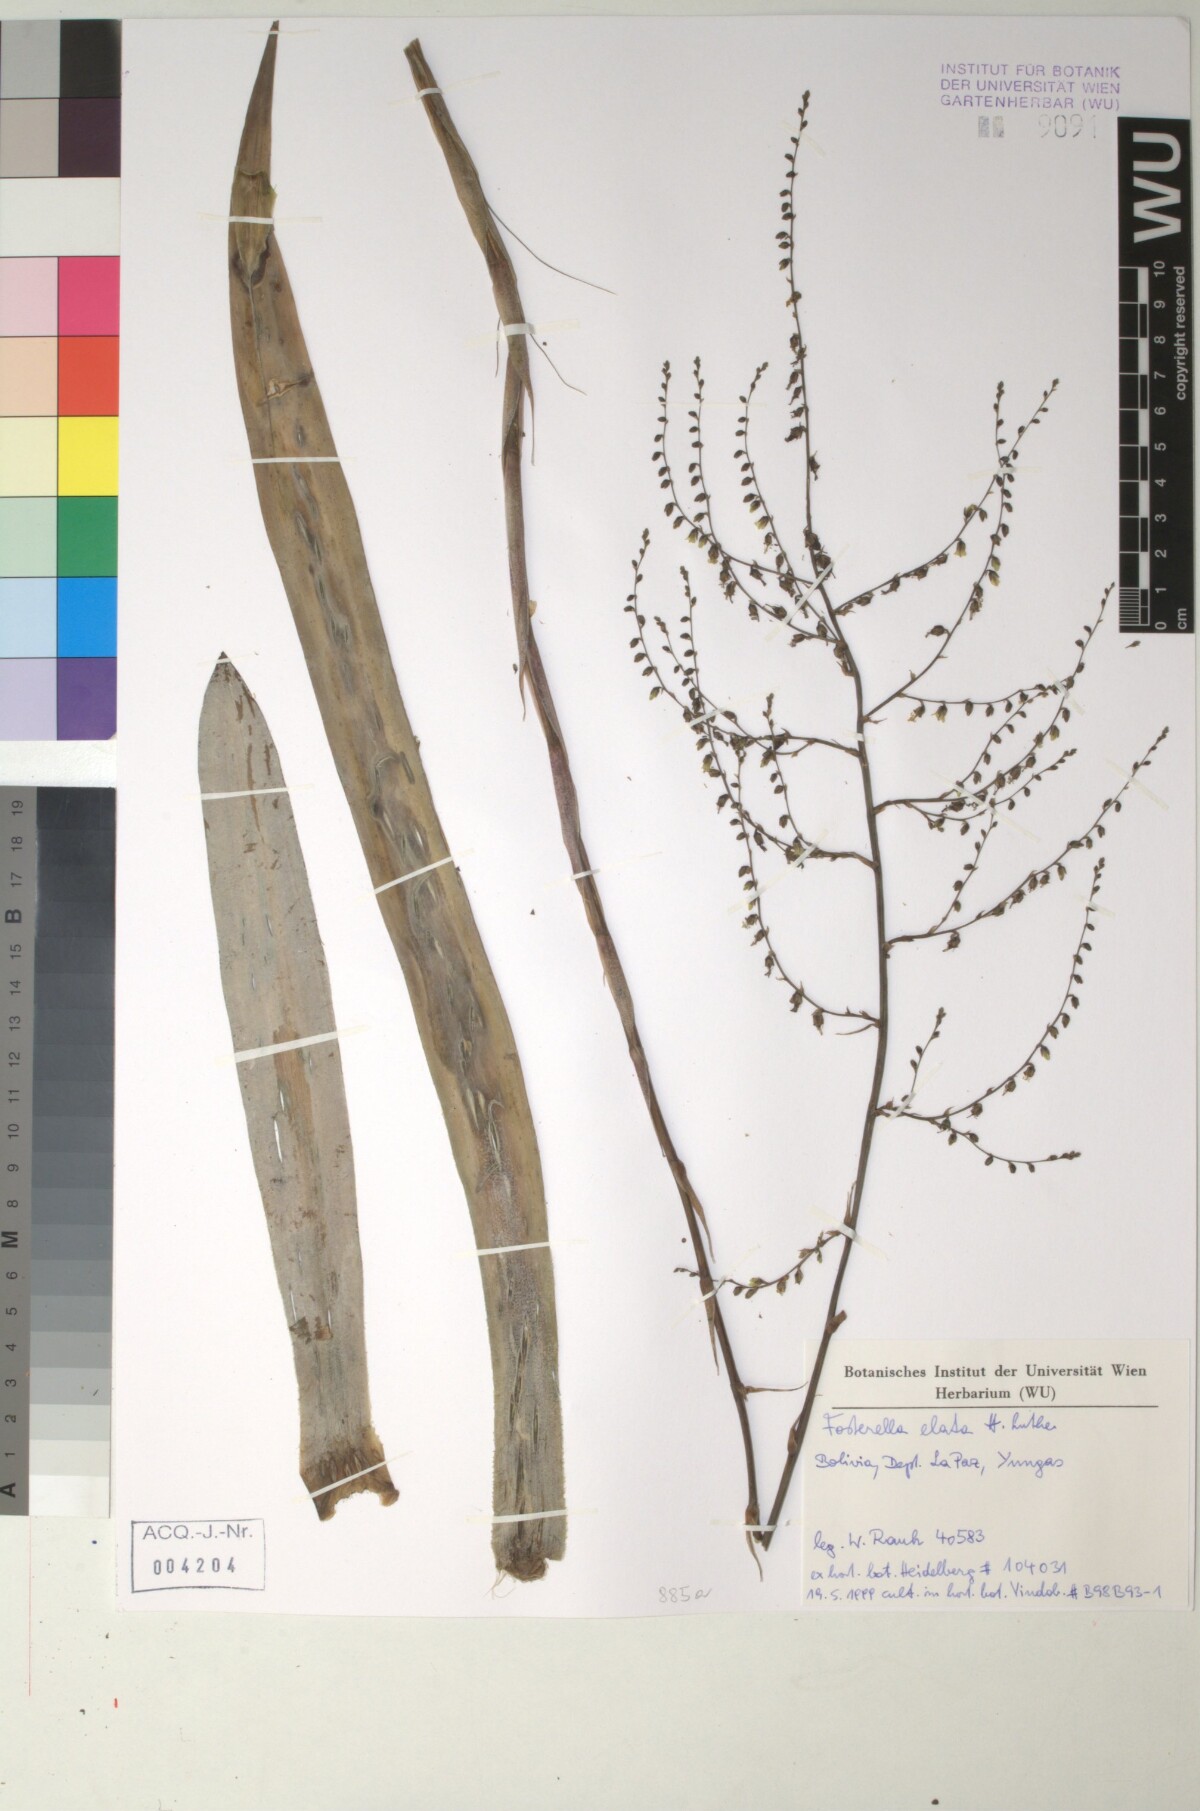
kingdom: Plantae
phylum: Tracheophyta
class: Liliopsida
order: Poales
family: Bromeliaceae
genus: Fosterella
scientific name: Fosterella rusbyi
